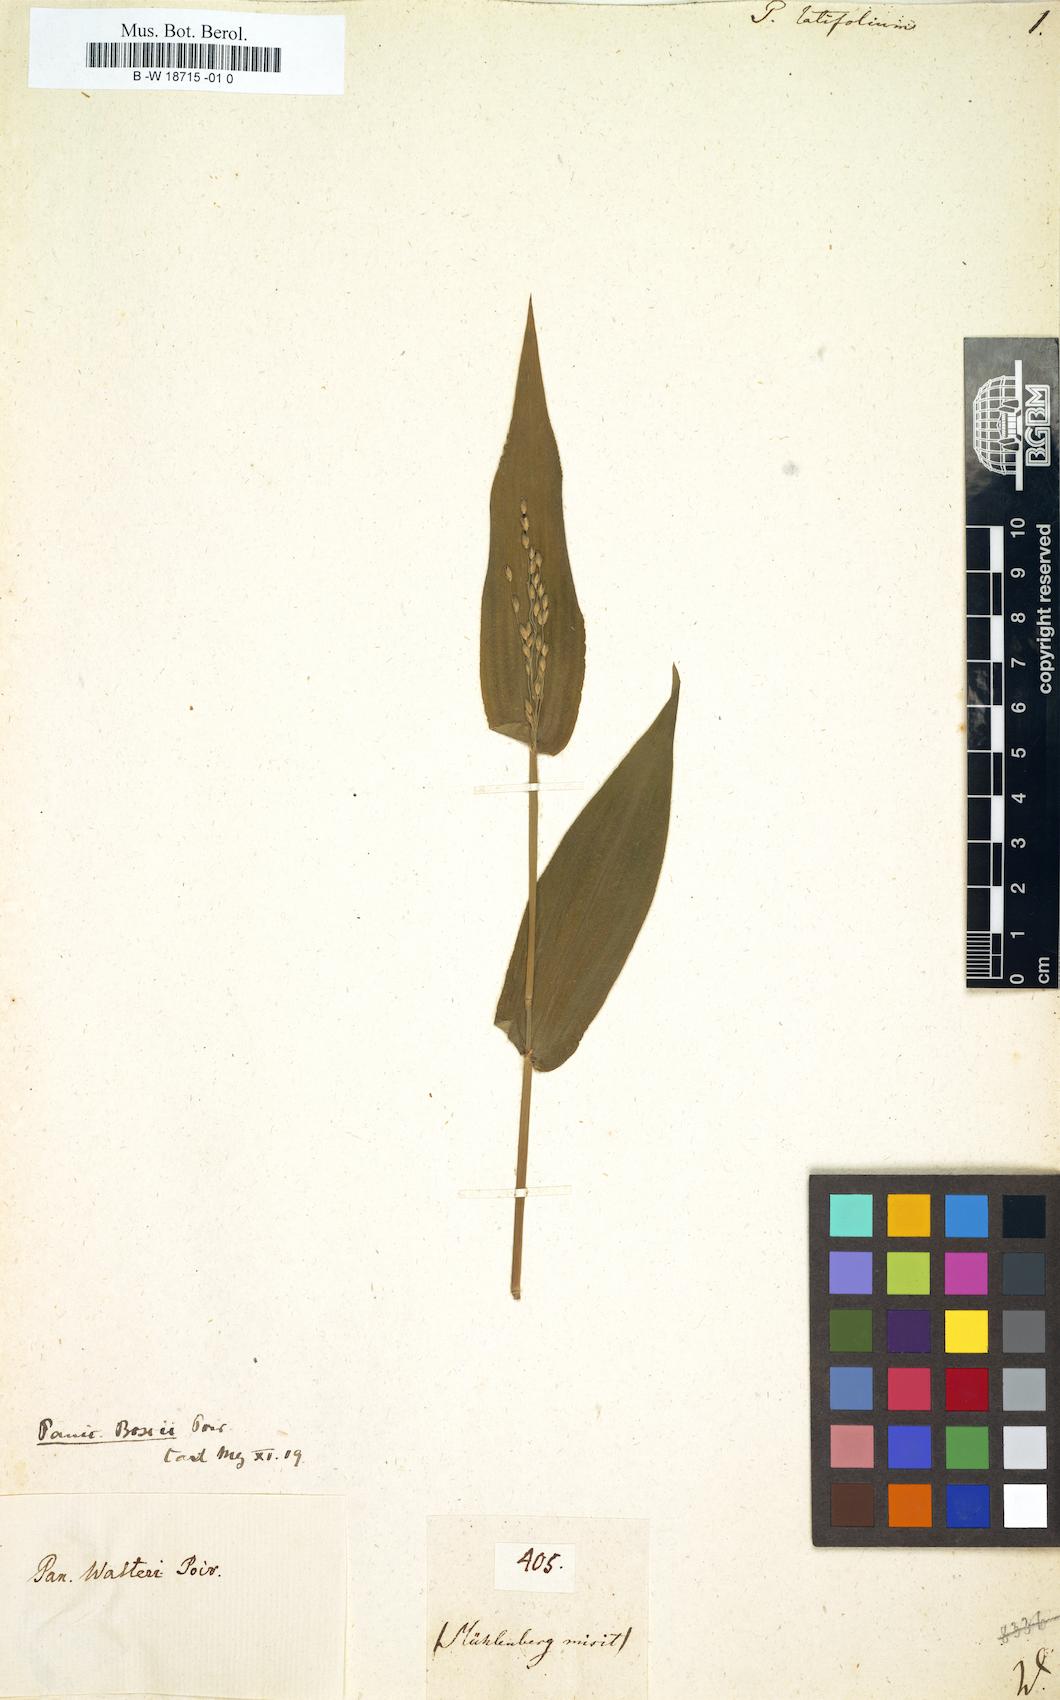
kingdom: Plantae
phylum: Tracheophyta
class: Liliopsida
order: Poales
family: Poaceae
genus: Panicum
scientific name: Panicum latifolium
